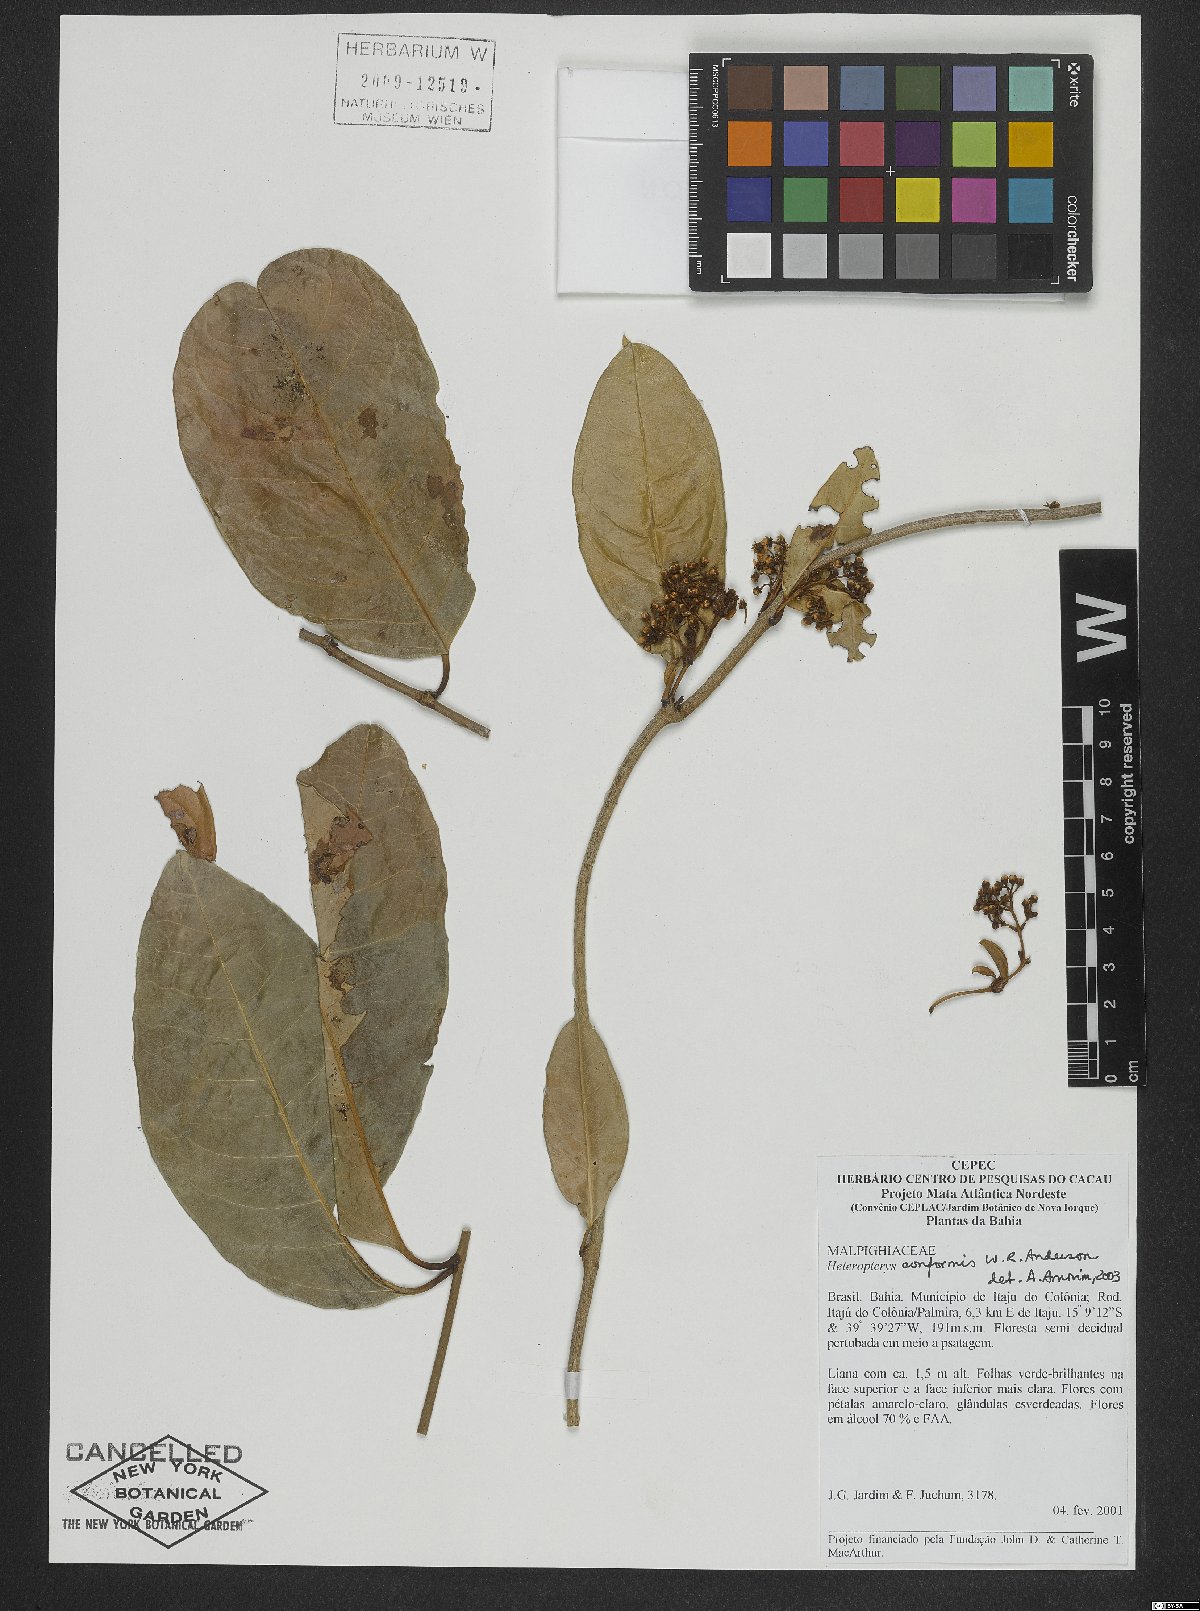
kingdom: Plantae
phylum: Tracheophyta
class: Magnoliopsida
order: Malpighiales
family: Malpighiaceae
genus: Heteropterys
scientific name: Heteropterys conformis
